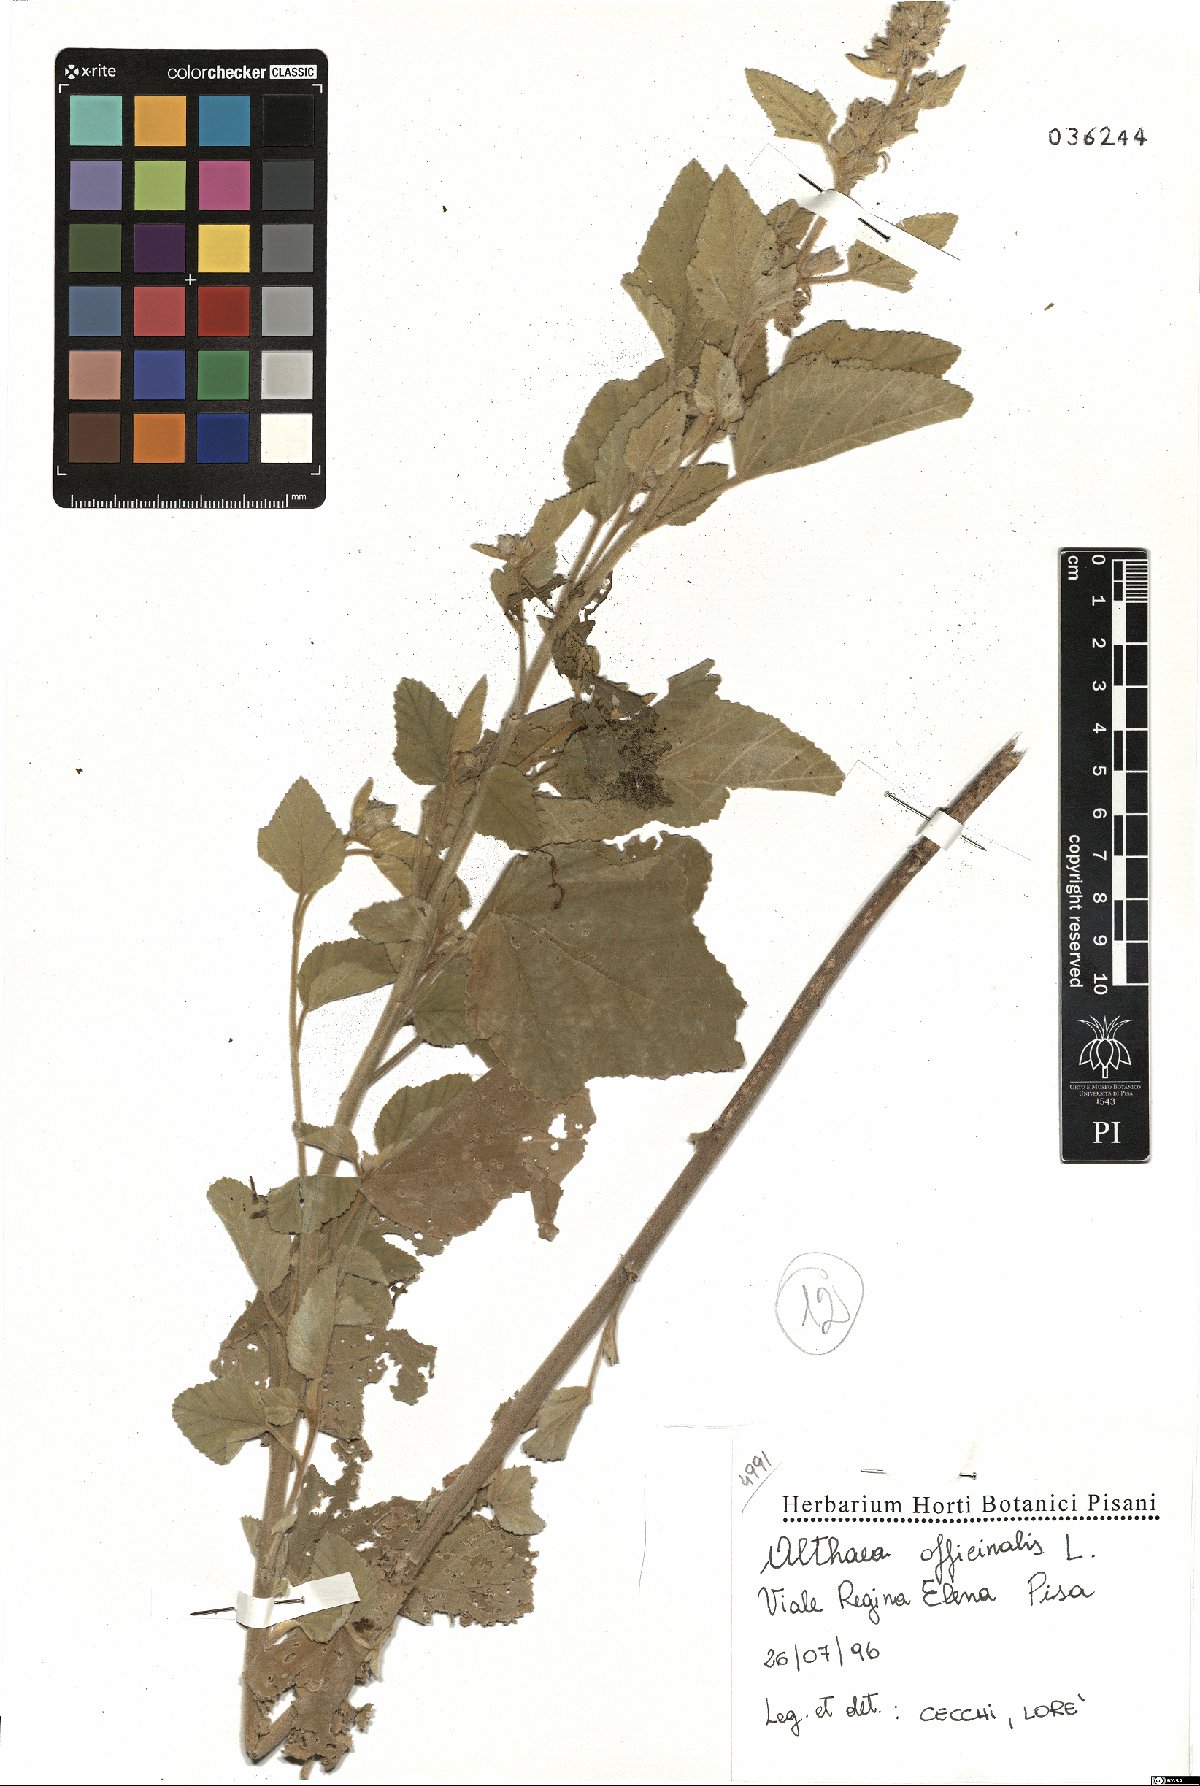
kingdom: Plantae
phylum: Tracheophyta
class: Magnoliopsida
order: Malvales
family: Malvaceae
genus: Althaea
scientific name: Althaea officinalis
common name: Marsh-mallow
